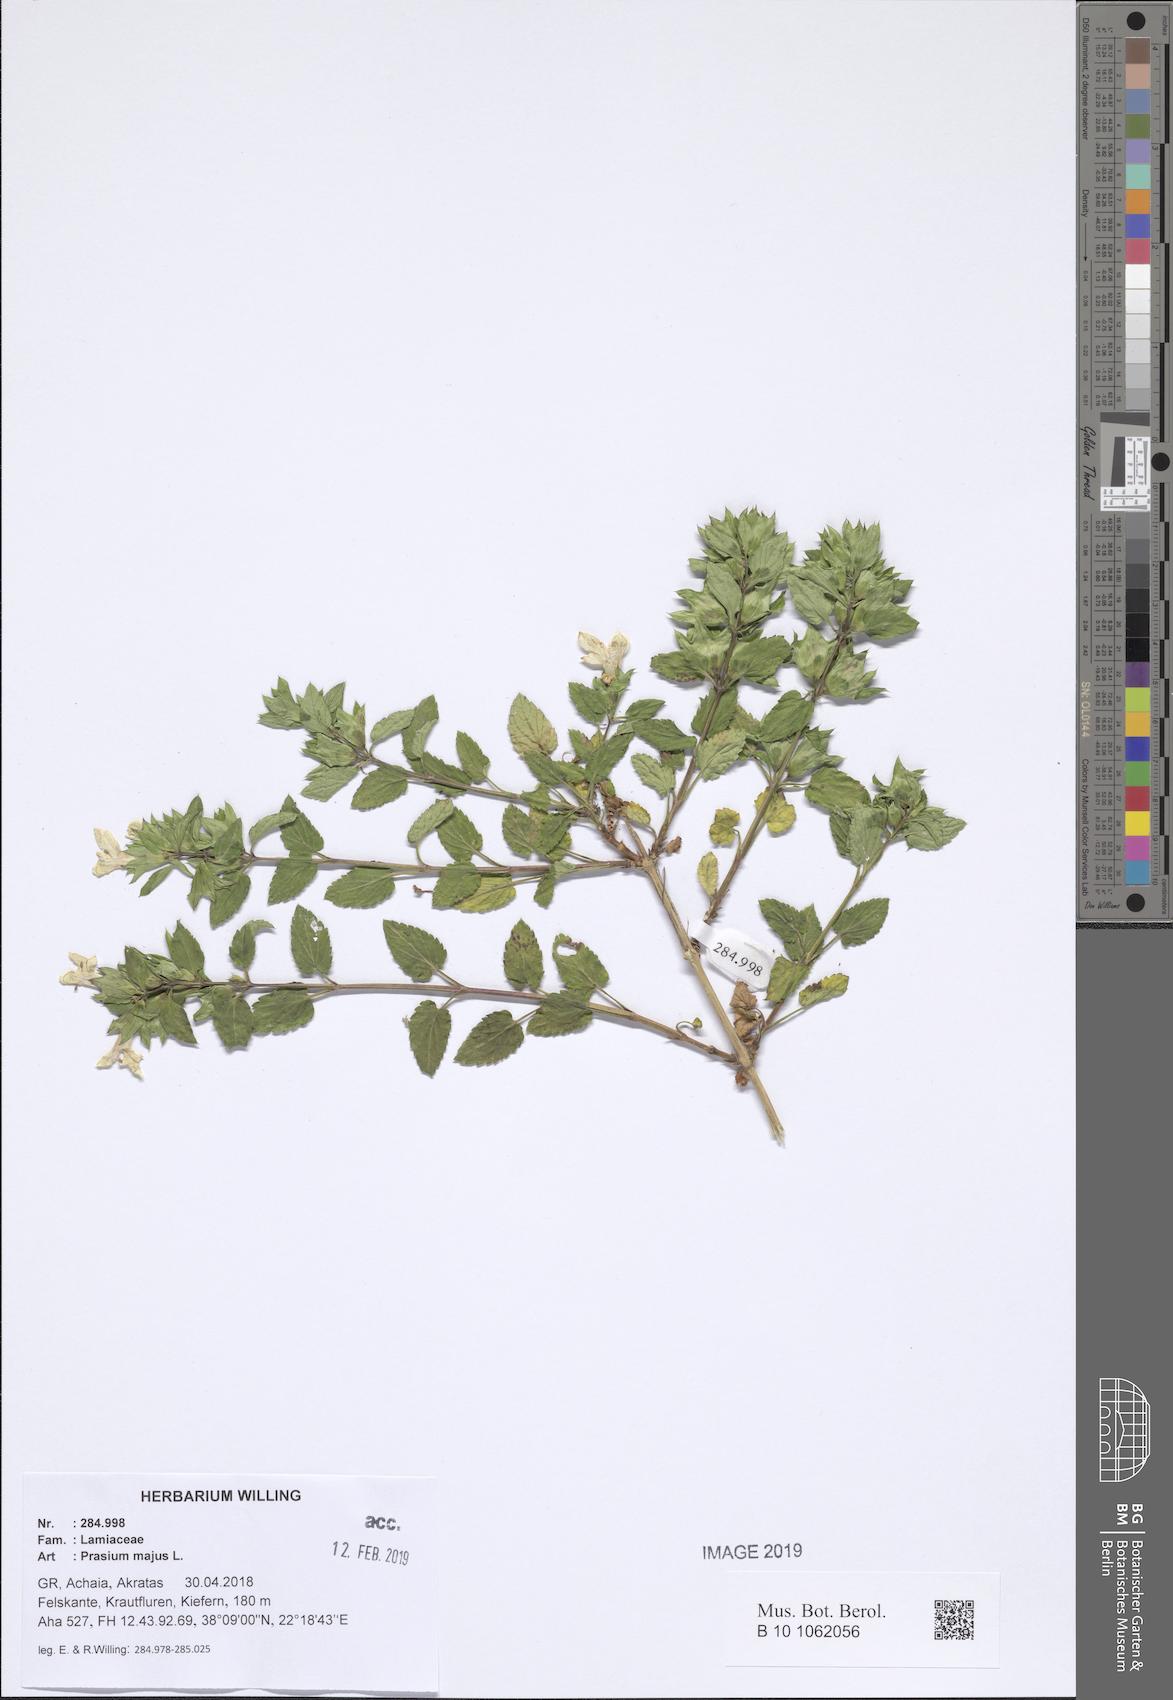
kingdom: Plantae
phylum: Tracheophyta
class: Magnoliopsida
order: Lamiales
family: Lamiaceae
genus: Prasium
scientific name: Prasium majus
